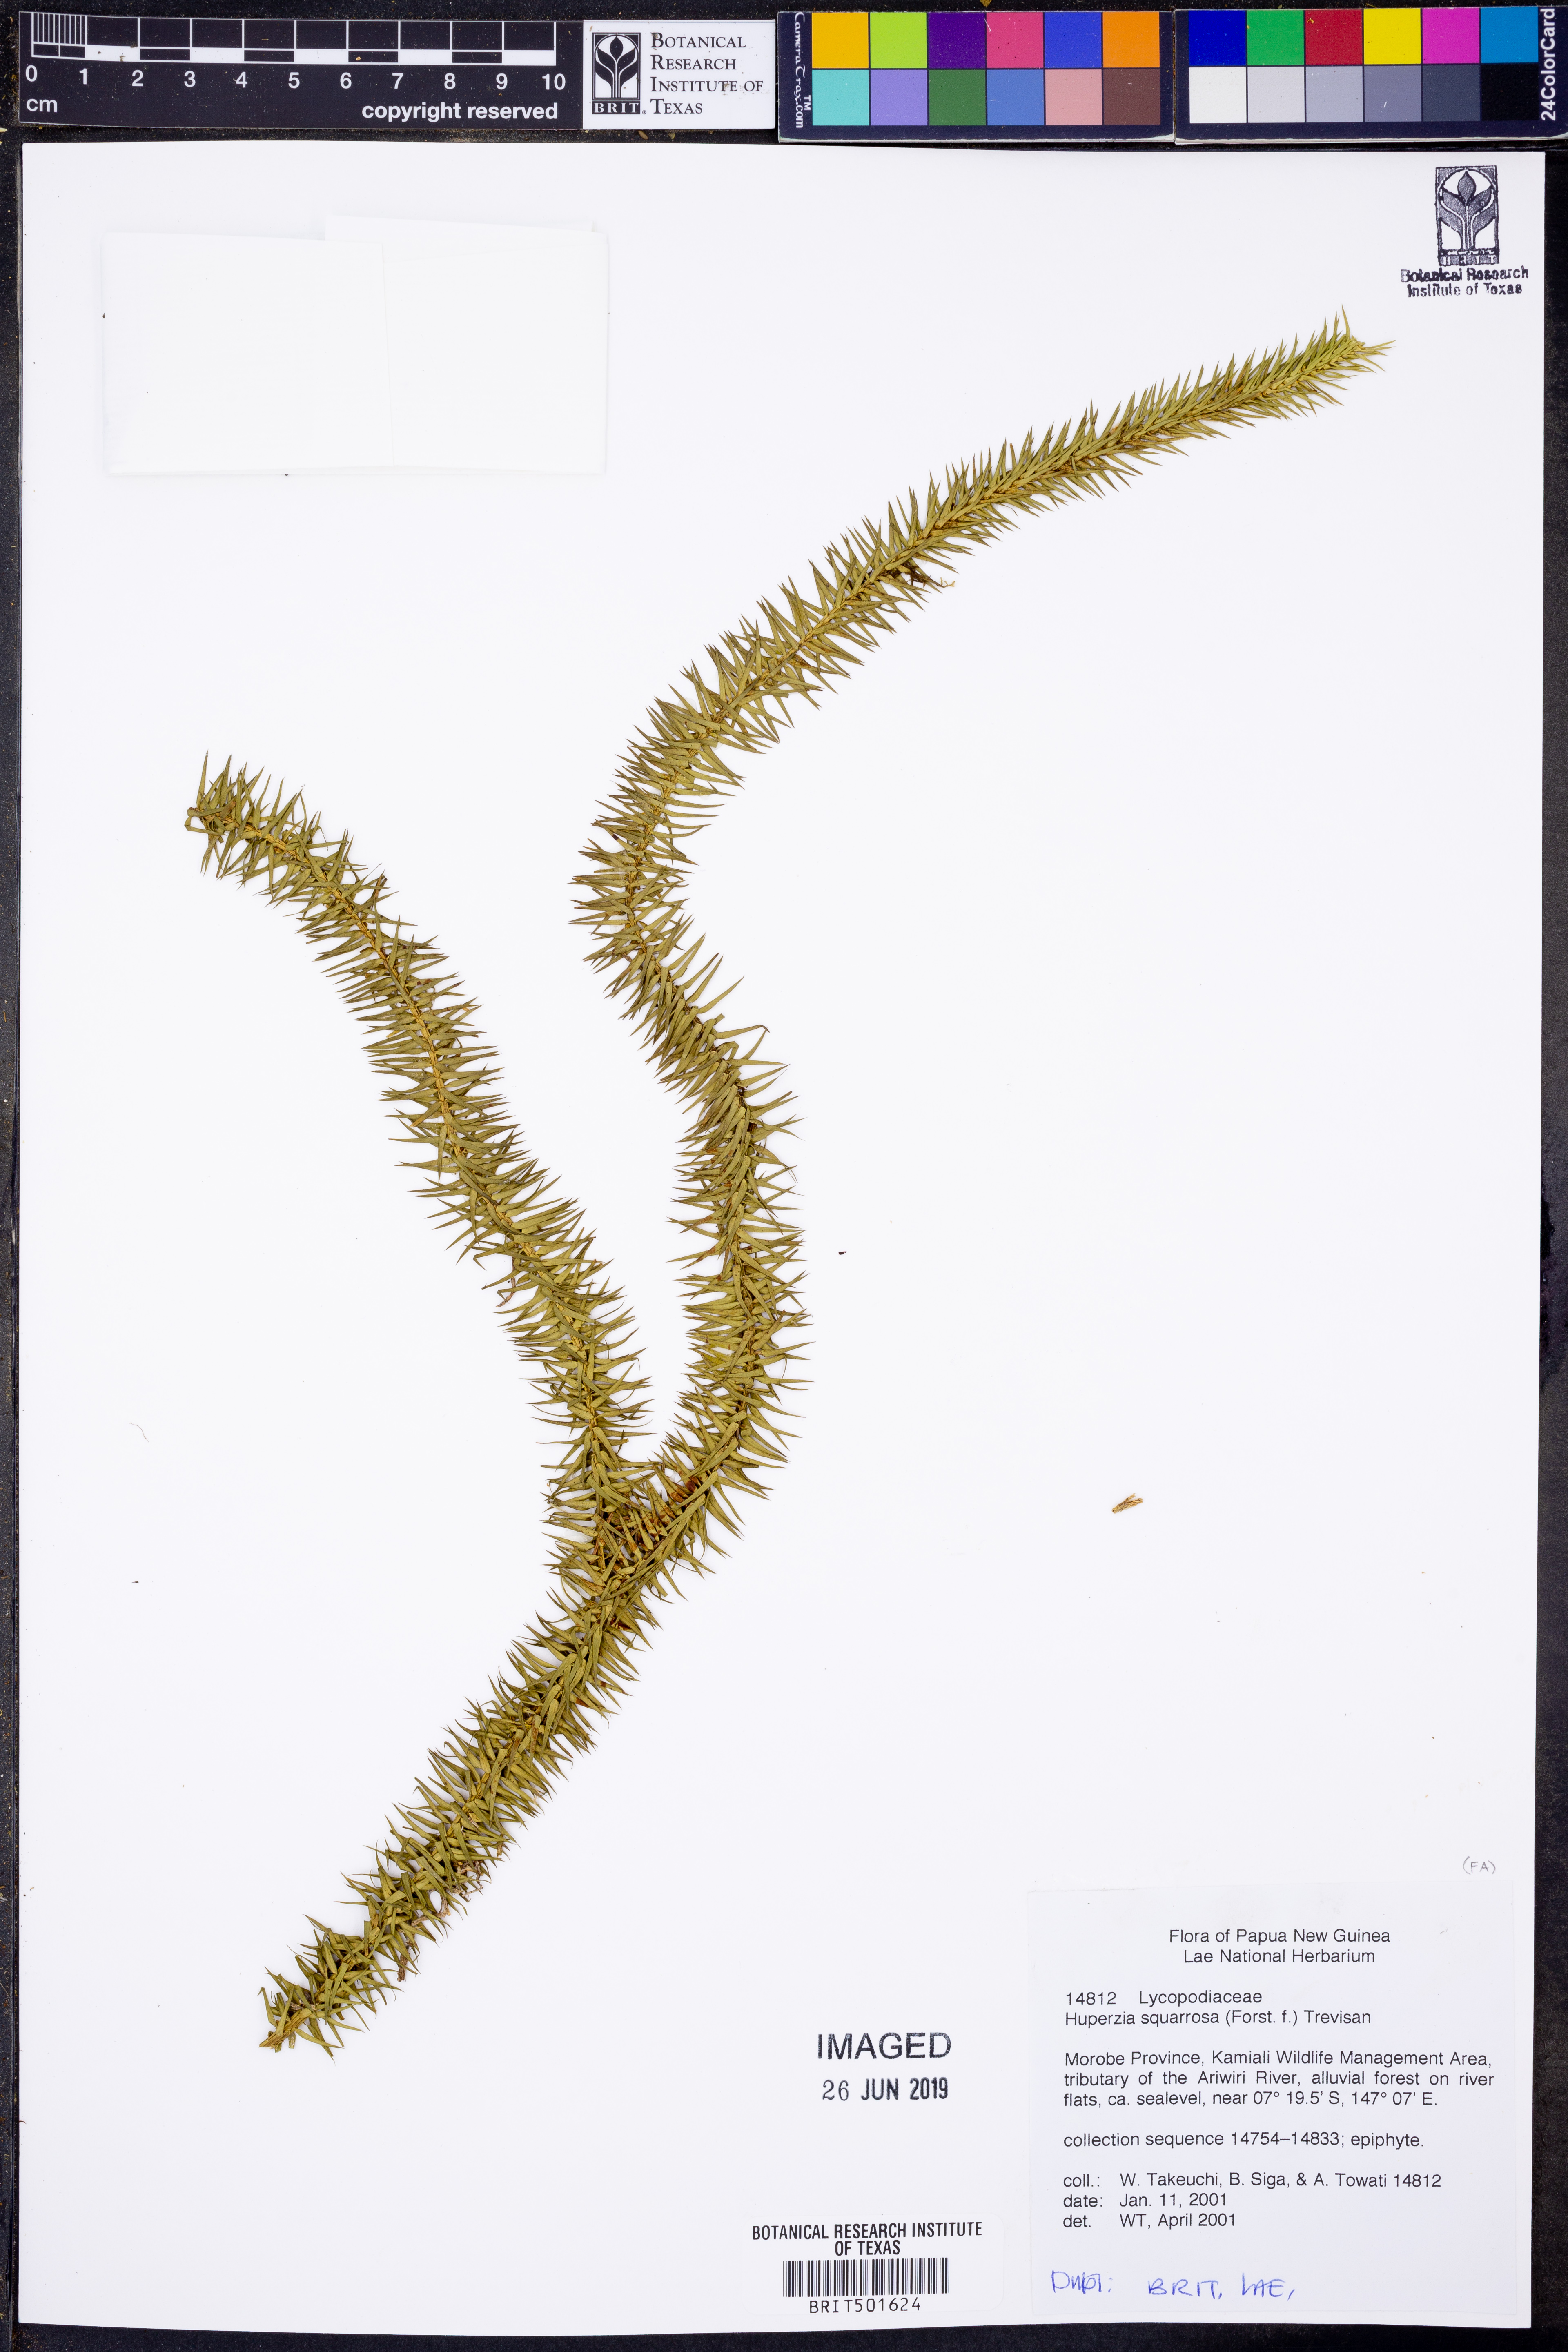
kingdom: Plantae
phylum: Tracheophyta
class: Lycopodiopsida
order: Lycopodiales
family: Lycopodiaceae
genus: Phlegmariurus
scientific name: Phlegmariurus squarrosus
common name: Rock tassel-fern
